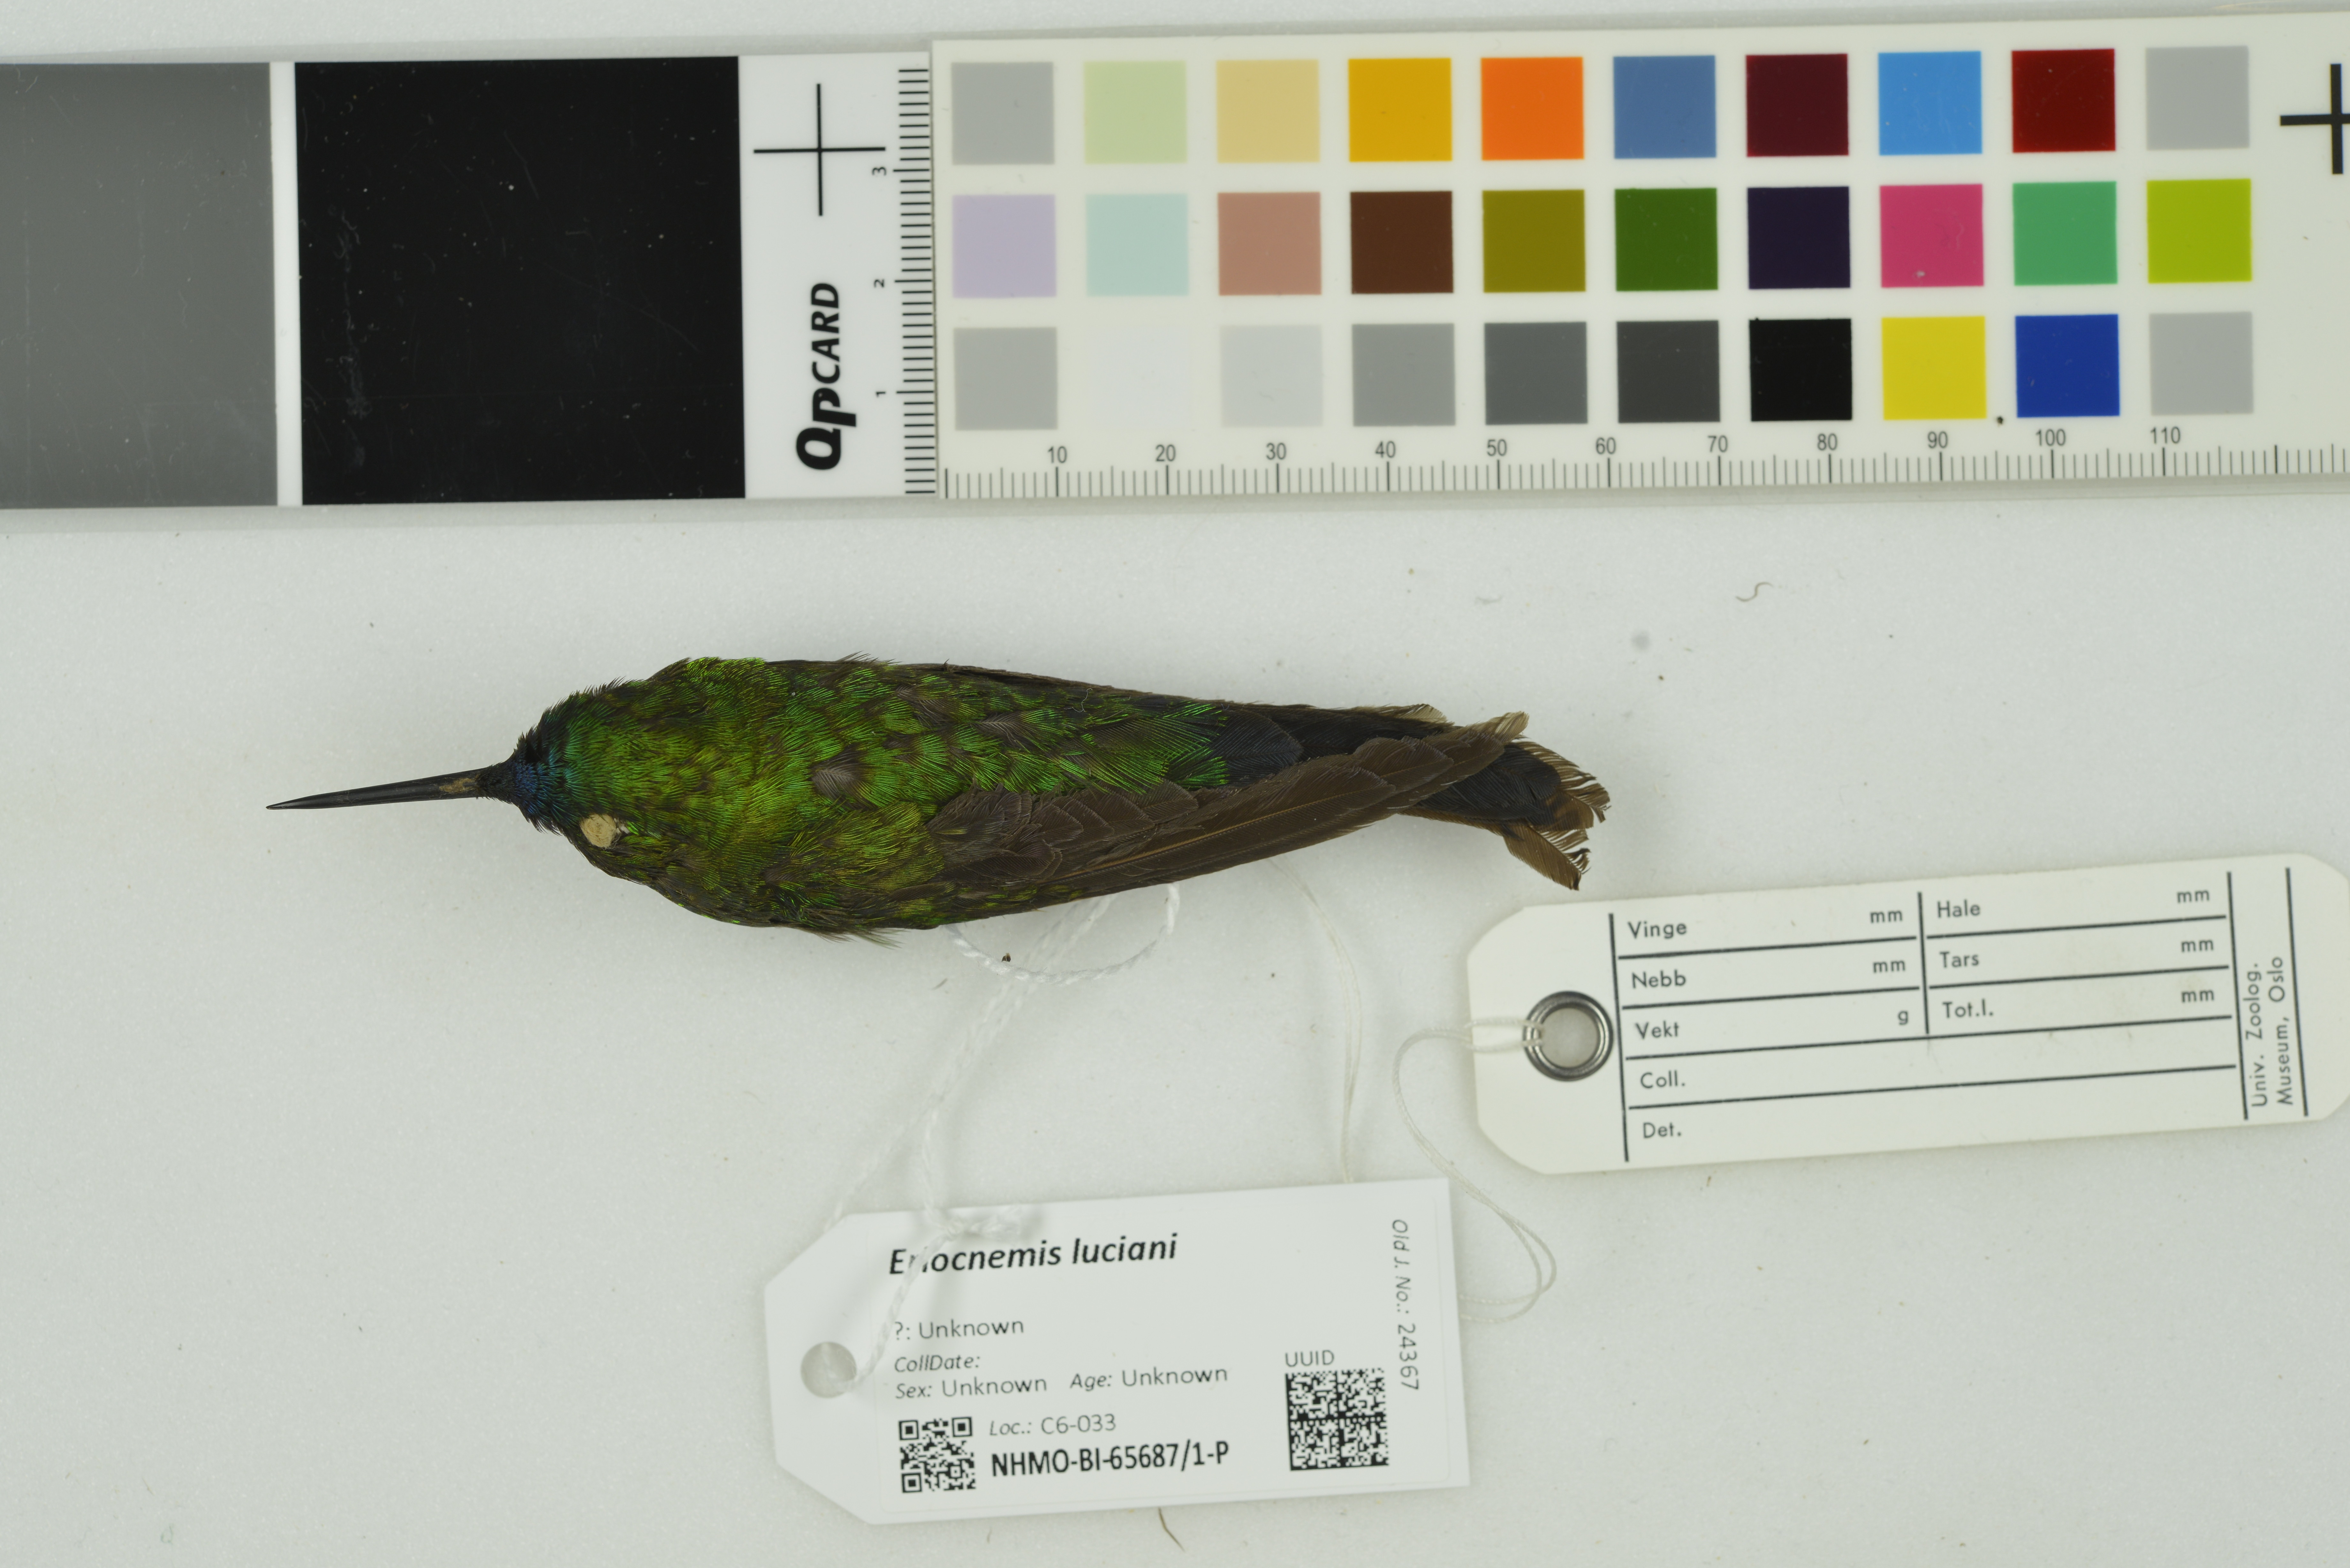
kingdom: Animalia
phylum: Chordata
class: Aves
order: Apodiformes
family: Trochilidae
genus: Eriocnemis
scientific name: Eriocnemis luciani
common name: Sapphire-vented puffleg
